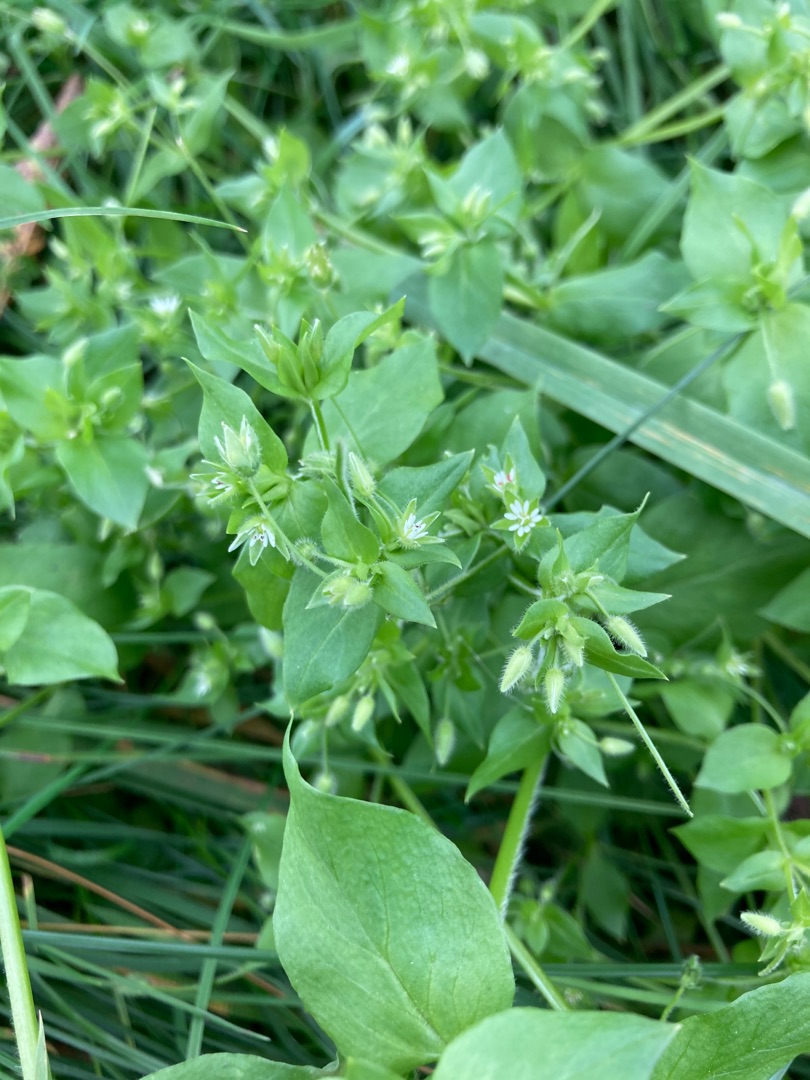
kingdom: Plantae
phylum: Tracheophyta
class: Magnoliopsida
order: Caryophyllales
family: Caryophyllaceae
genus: Stellaria
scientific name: Stellaria media
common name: Almindelig fuglegræs
